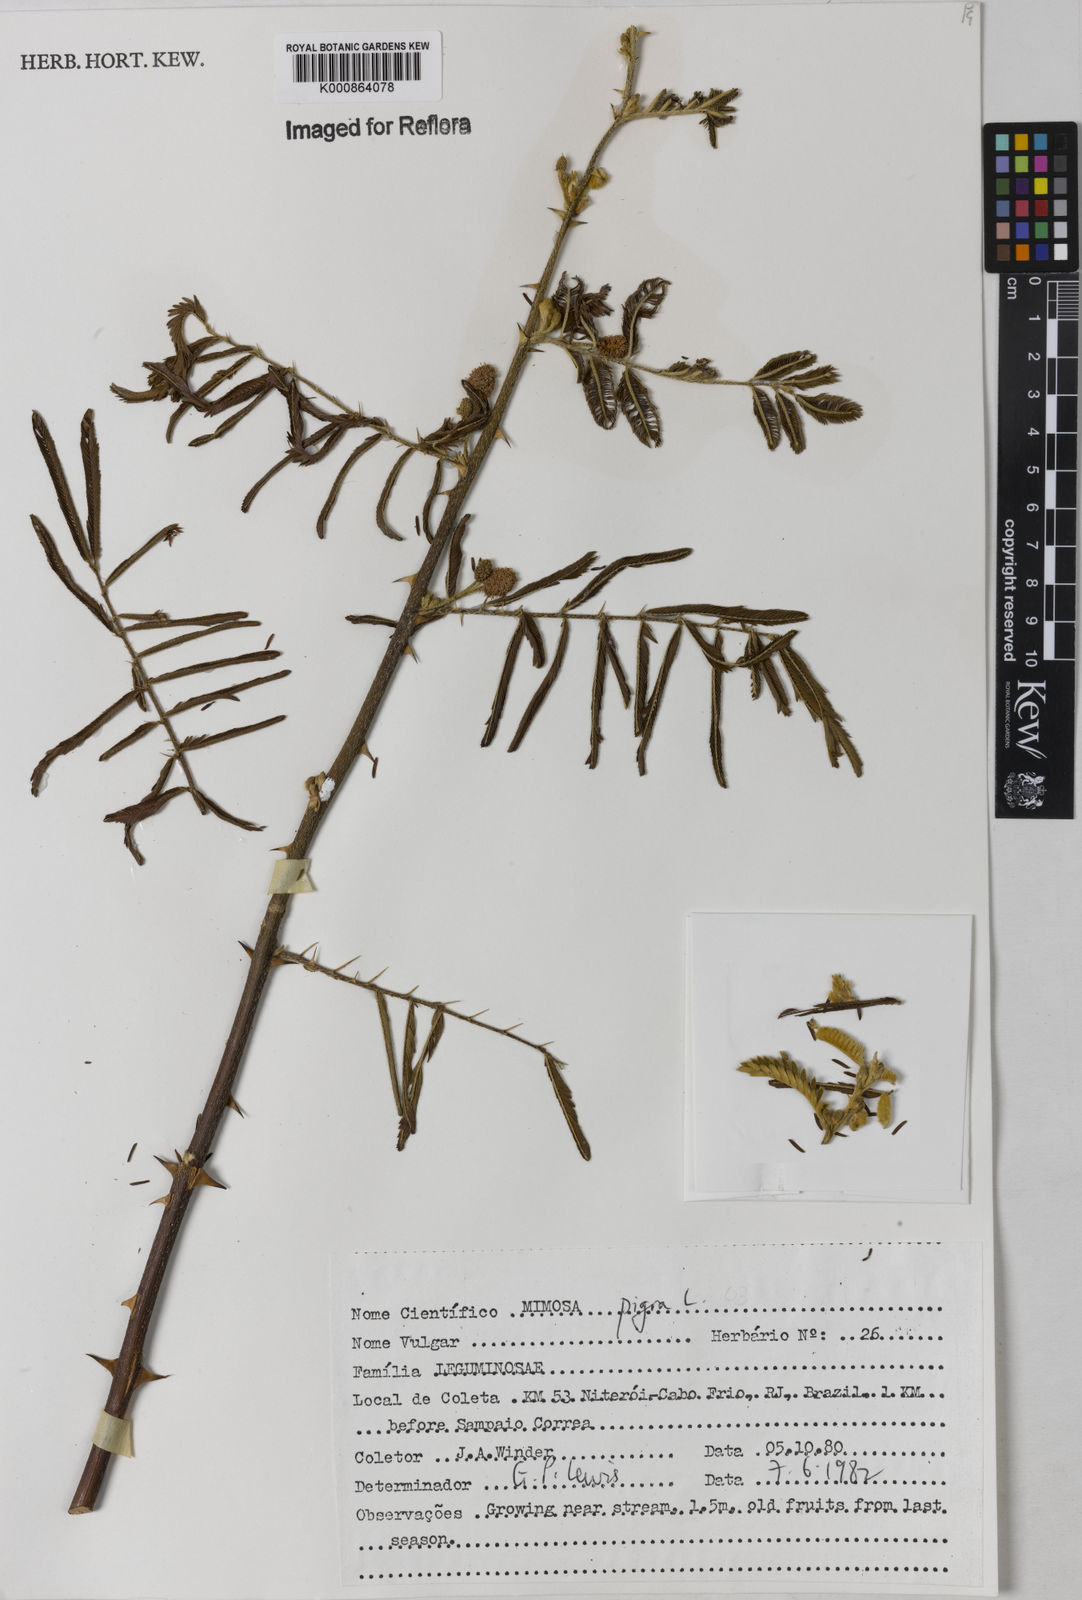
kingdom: Plantae
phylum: Tracheophyta
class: Magnoliopsida
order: Fabales
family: Fabaceae
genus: Mimosa
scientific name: Mimosa pigra
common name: Black mimosa
